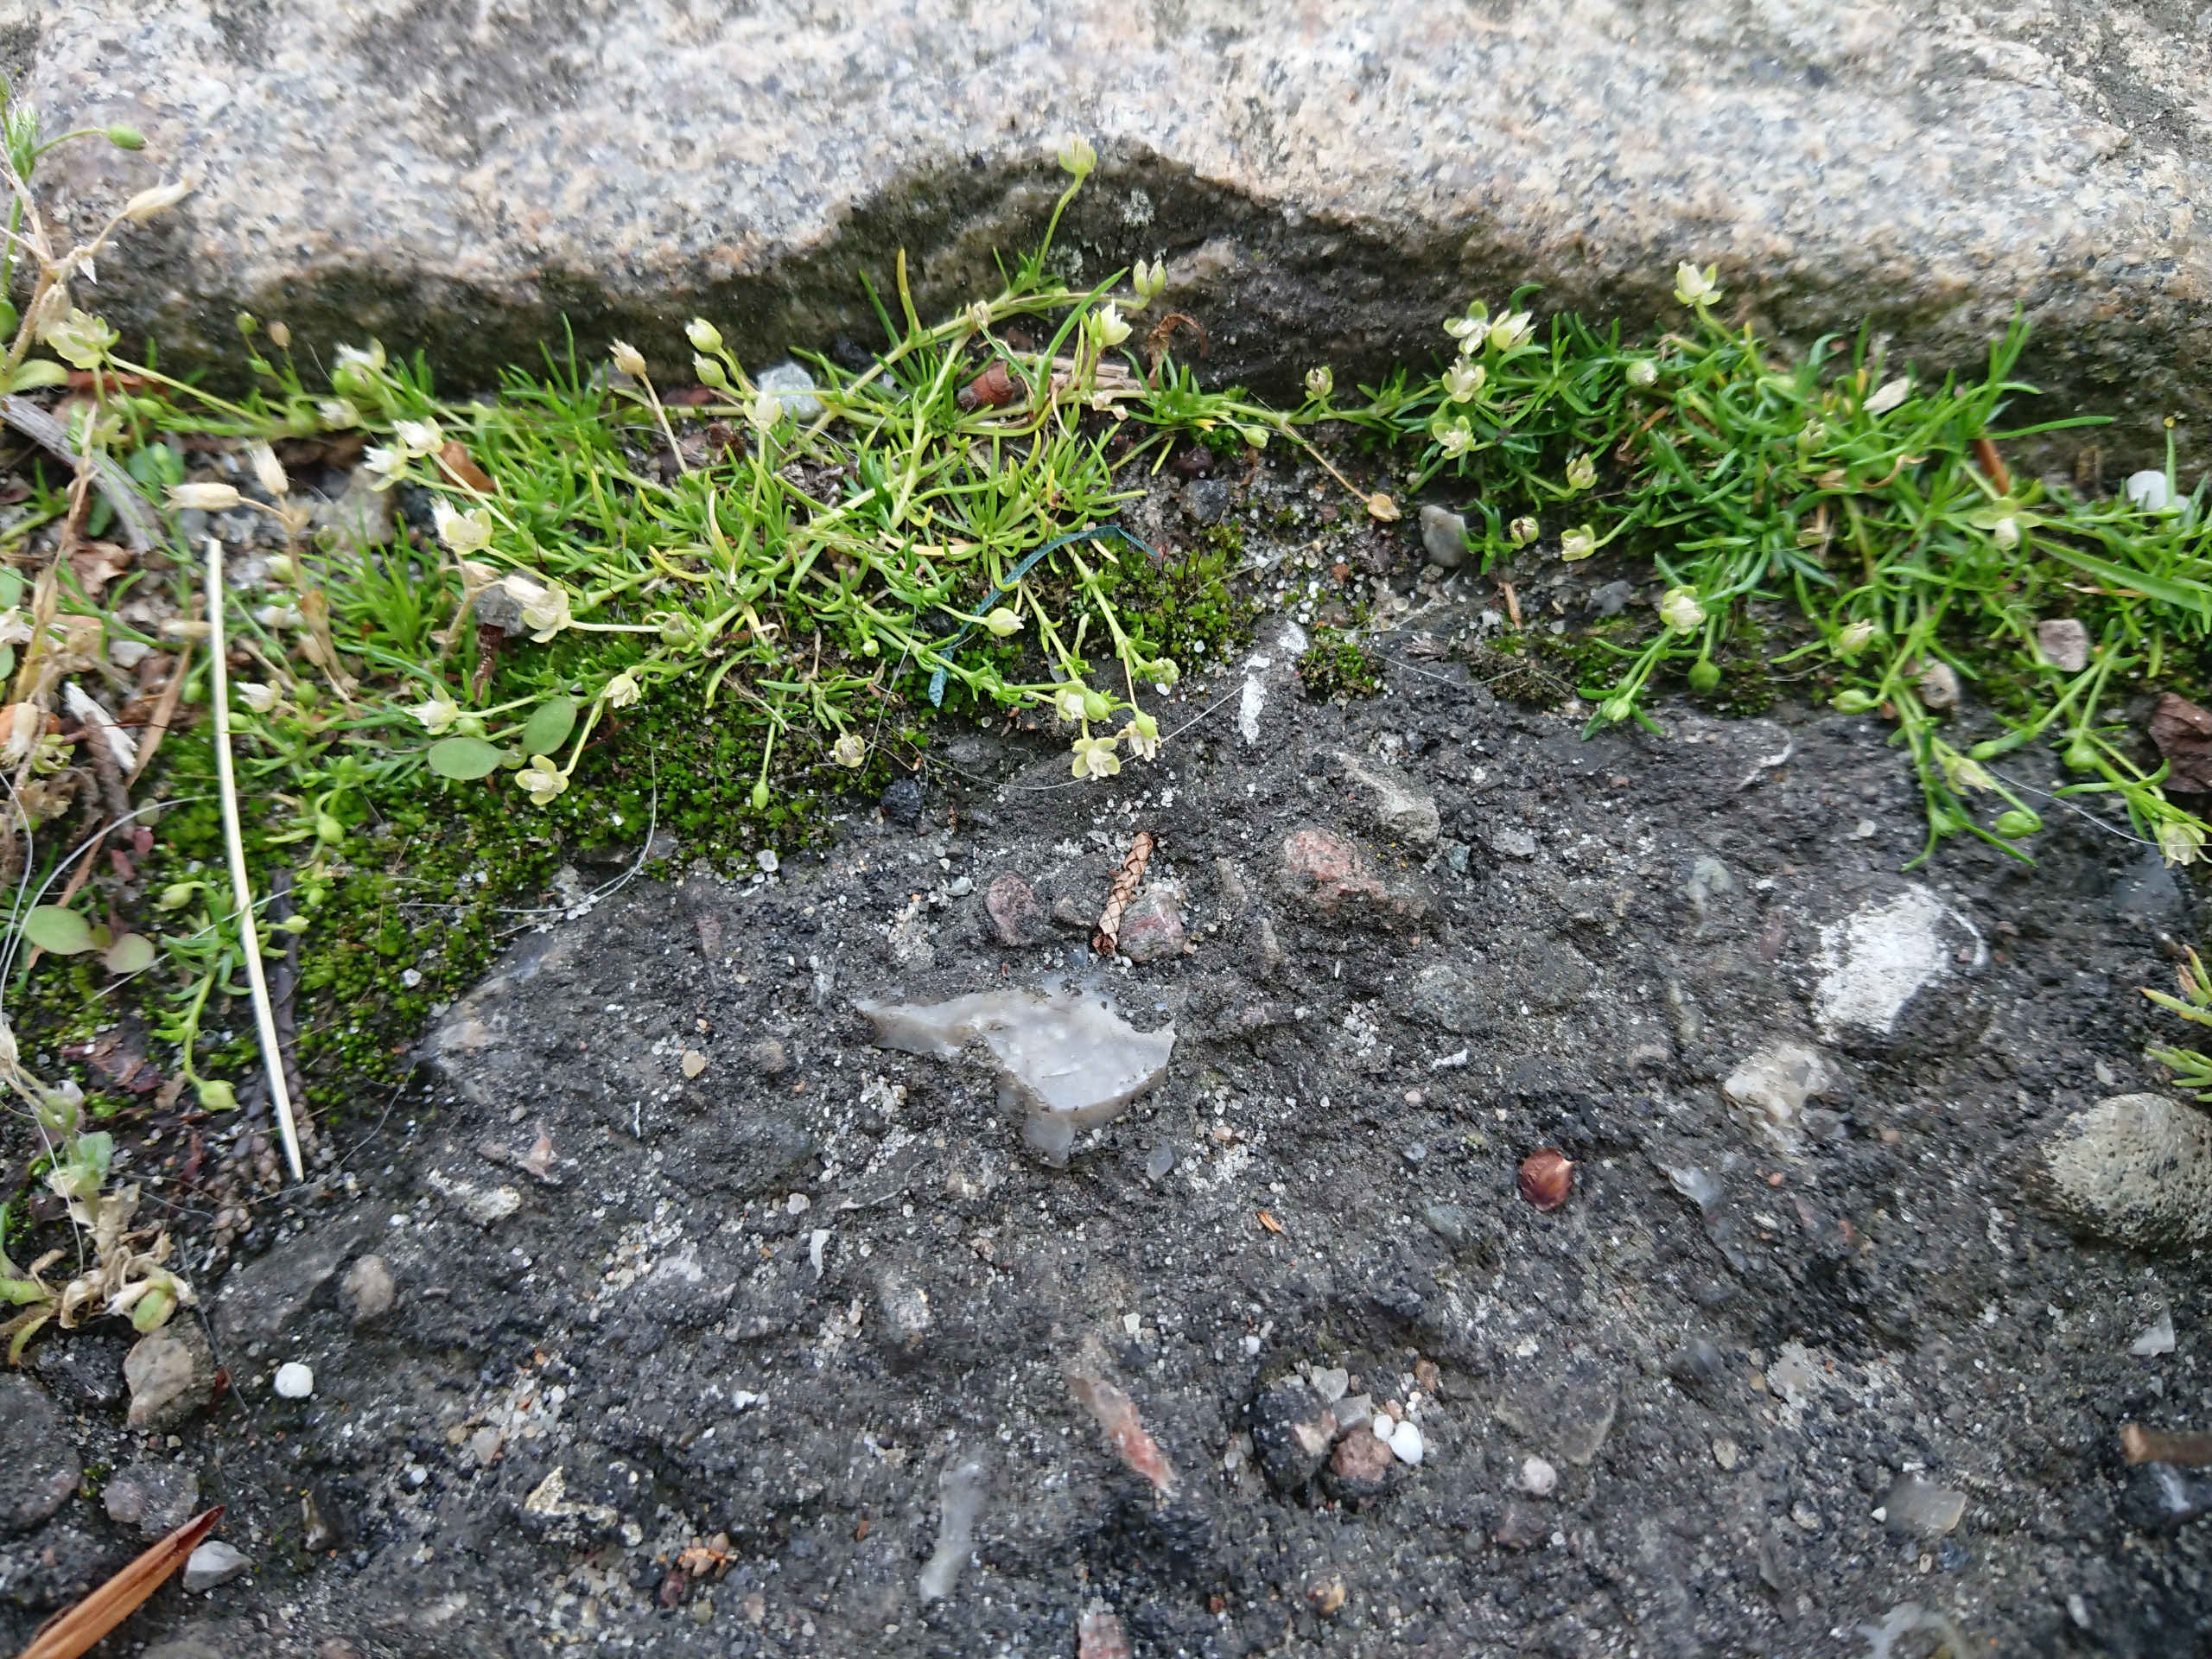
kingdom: Plantae
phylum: Tracheophyta
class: Magnoliopsida
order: Caryophyllales
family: Caryophyllaceae
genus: Sagina
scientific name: Sagina procumbens
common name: Almindelig firling
